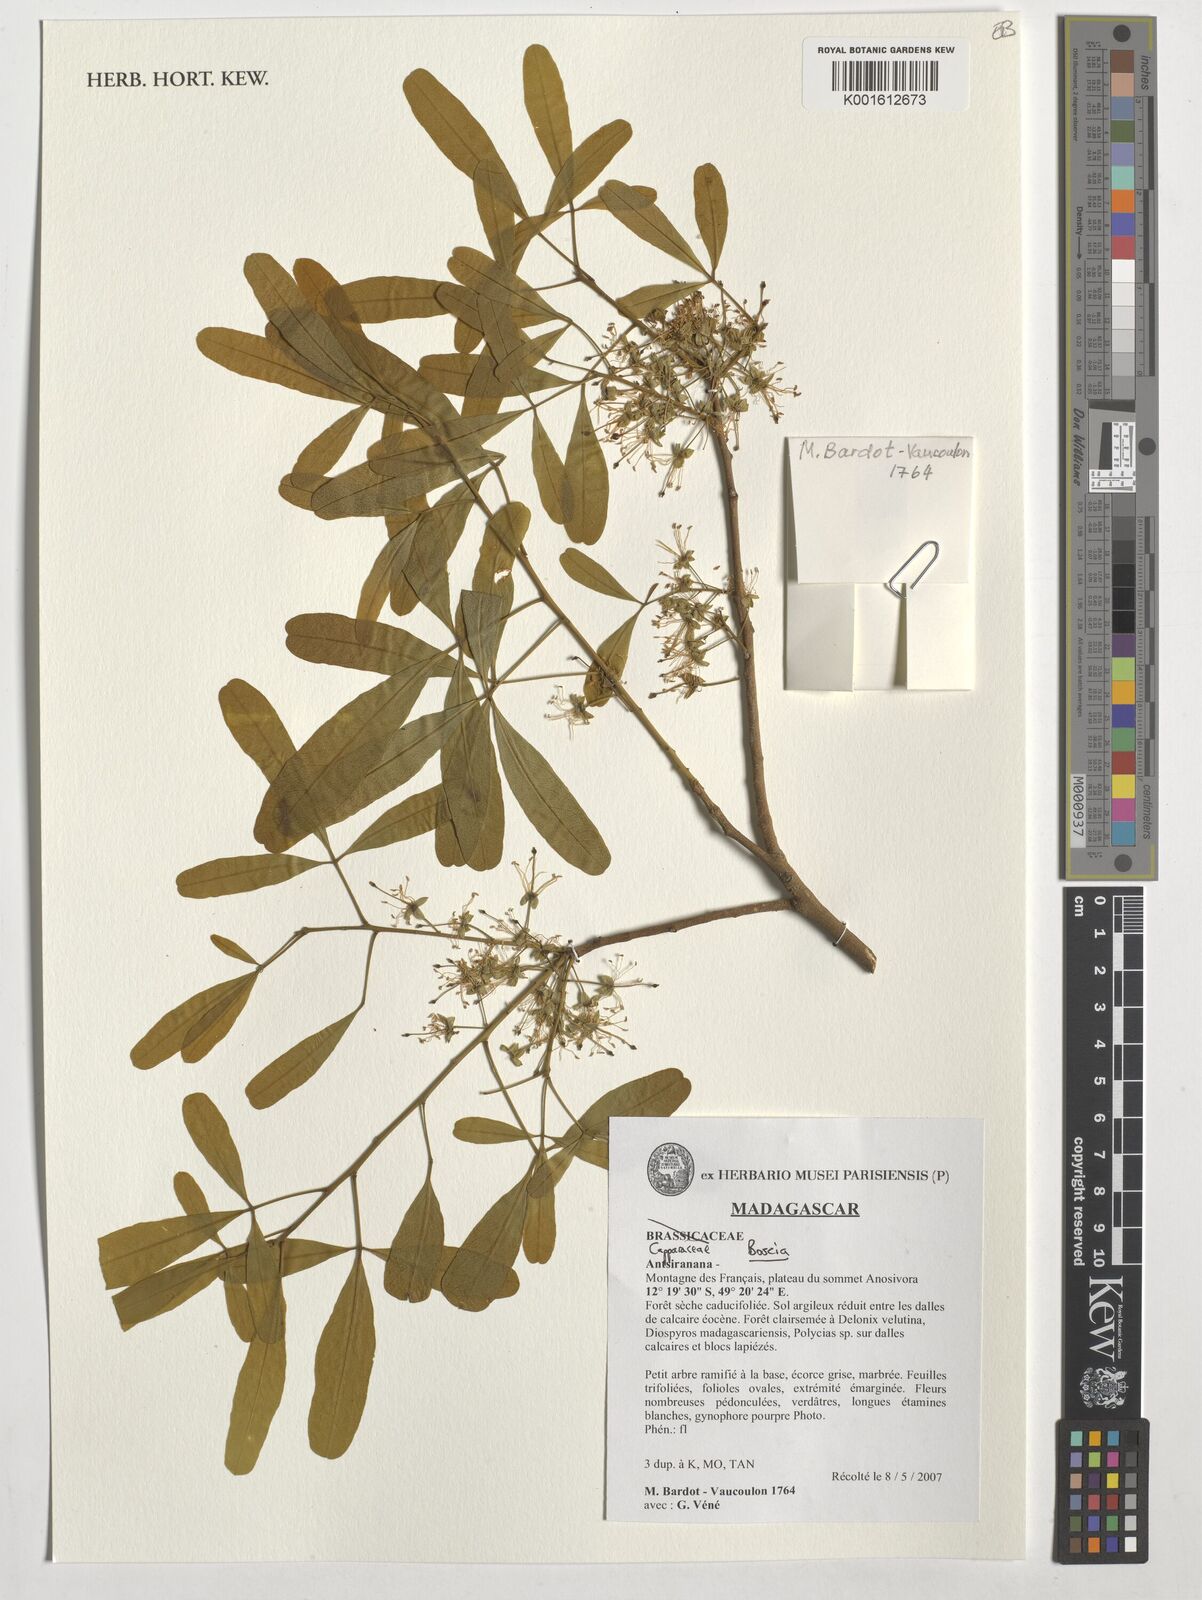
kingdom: Plantae
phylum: Tracheophyta
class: Magnoliopsida
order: Brassicales
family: Capparaceae
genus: Boscia
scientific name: Boscia
